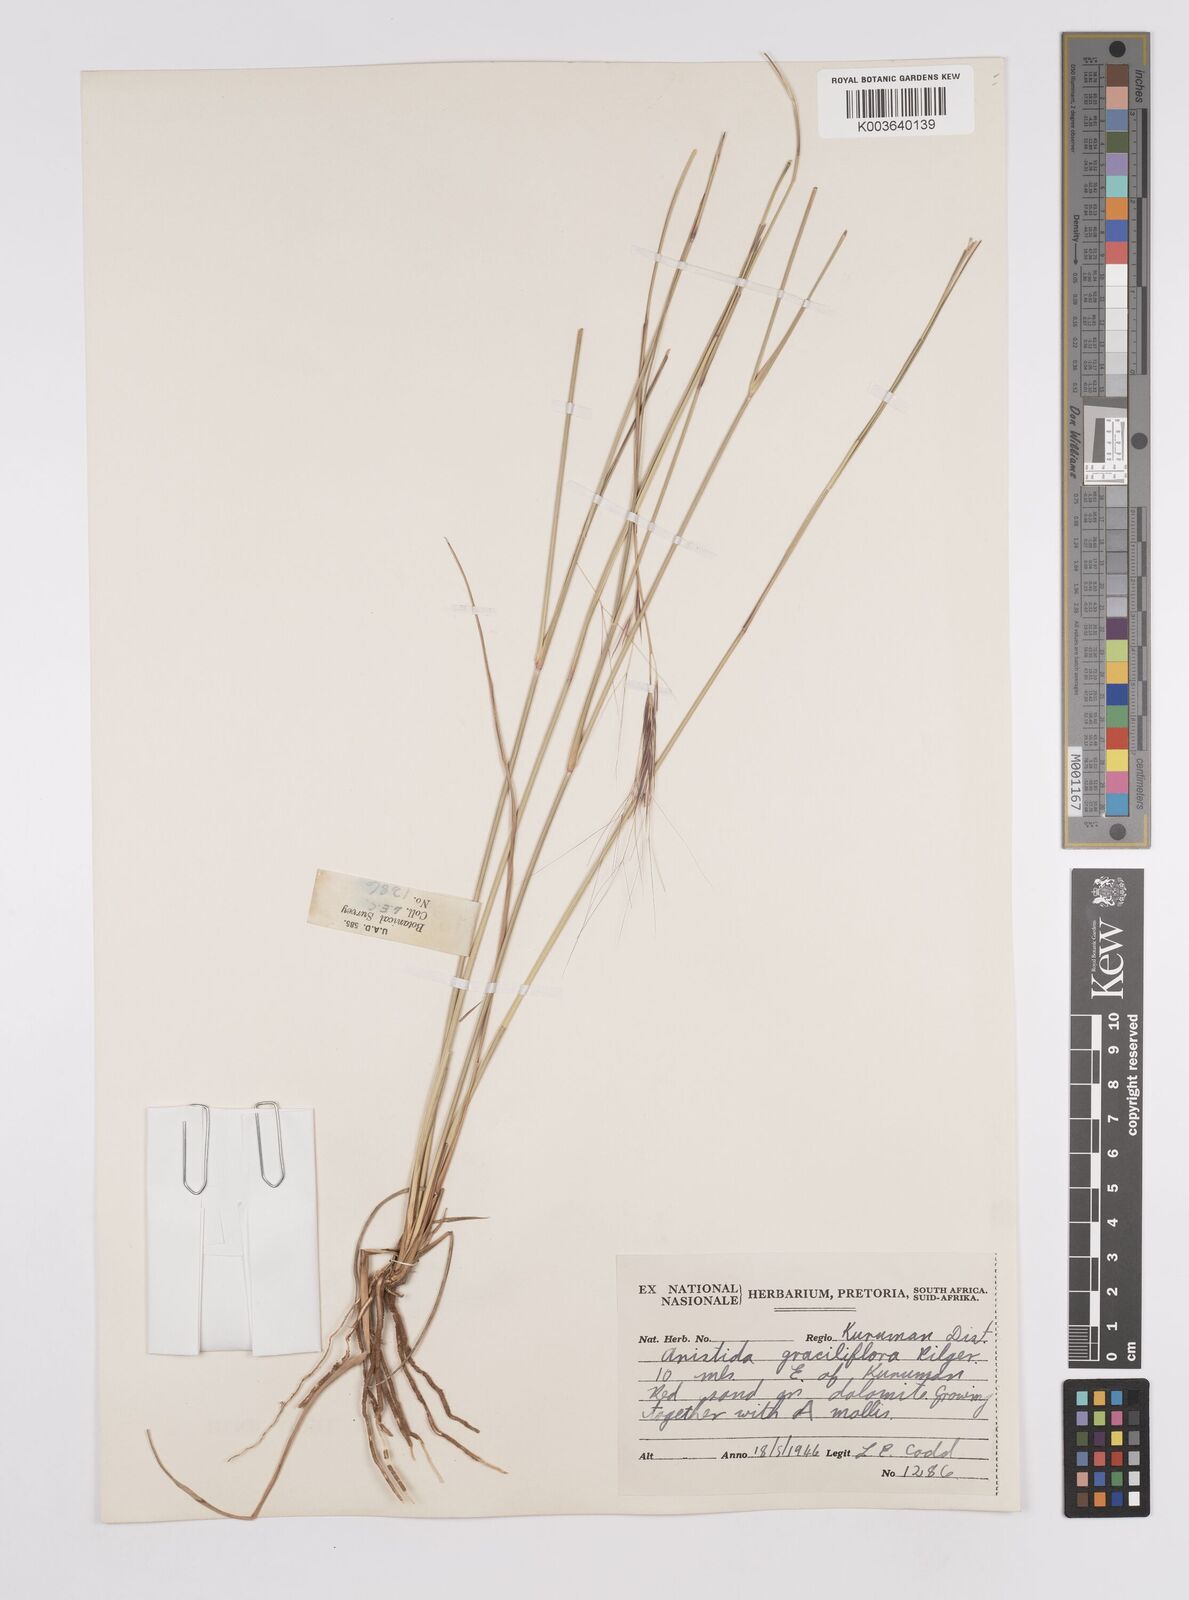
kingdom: Plantae
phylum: Tracheophyta
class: Liliopsida
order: Poales
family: Poaceae
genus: Aristida
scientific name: Aristida stipitata
